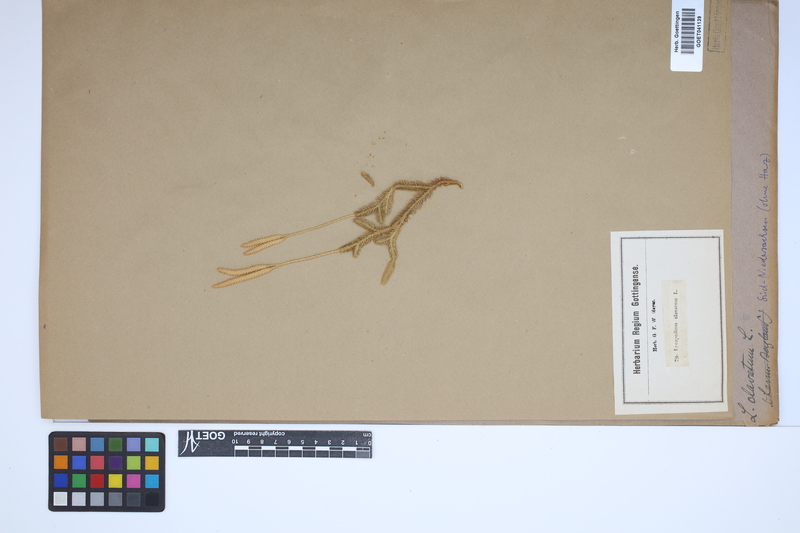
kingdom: Plantae
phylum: Tracheophyta
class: Lycopodiopsida
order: Lycopodiales
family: Lycopodiaceae
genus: Lycopodium
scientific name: Lycopodium clavatum
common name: Stag's-horn clubmoss
